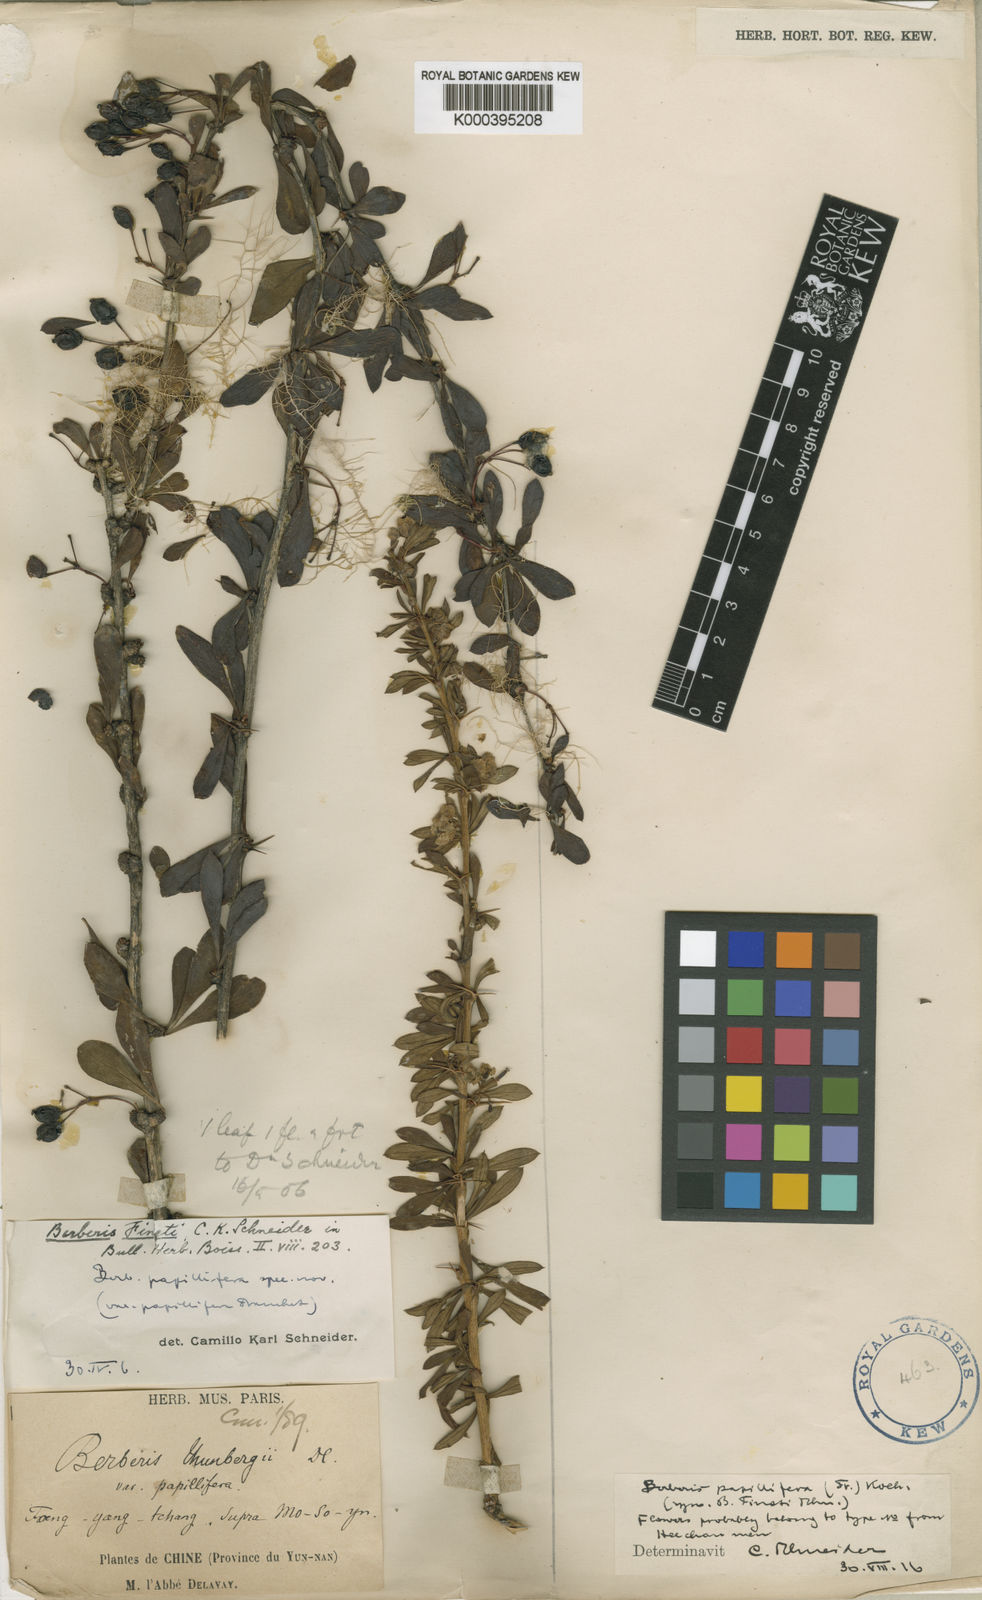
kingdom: Plantae
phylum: Tracheophyta
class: Magnoliopsida
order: Ranunculales
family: Berberidaceae
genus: Berberis
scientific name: Berberis papillifera
